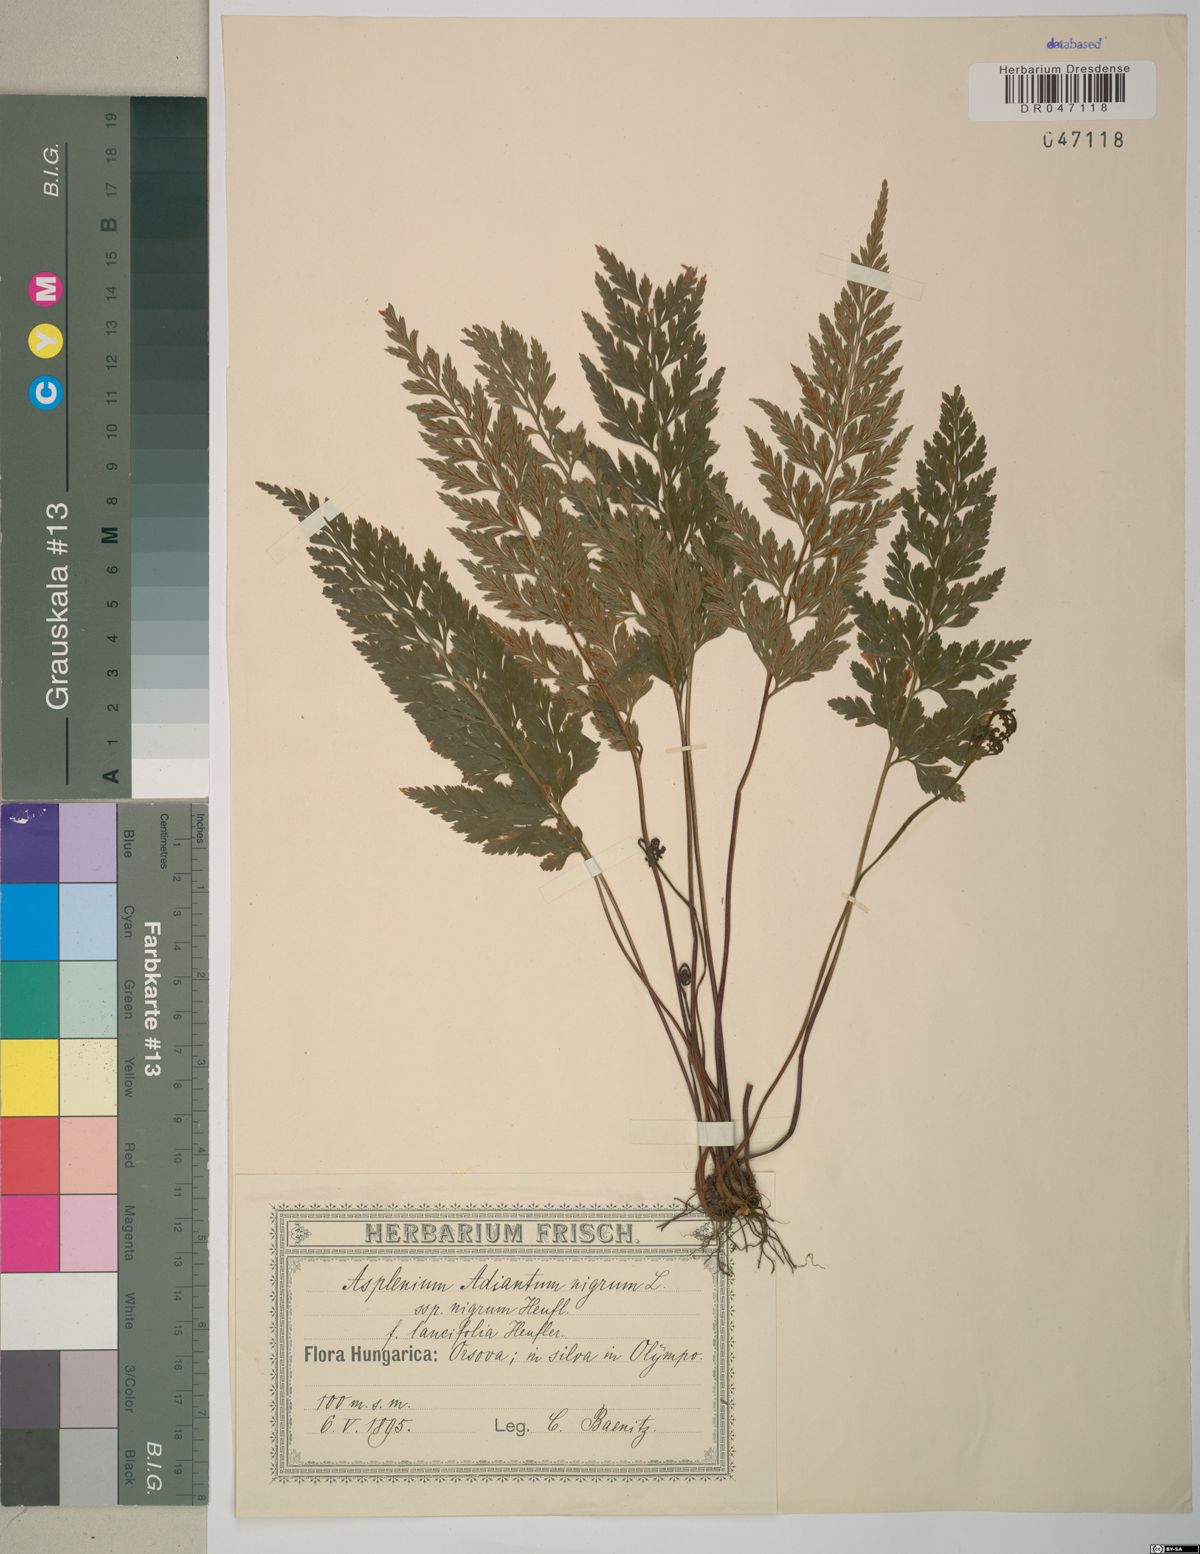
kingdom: Plantae
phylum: Tracheophyta
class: Polypodiopsida
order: Polypodiales
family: Aspleniaceae
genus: Asplenium
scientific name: Asplenium adiantum-nigrum
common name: Black spleenwort
